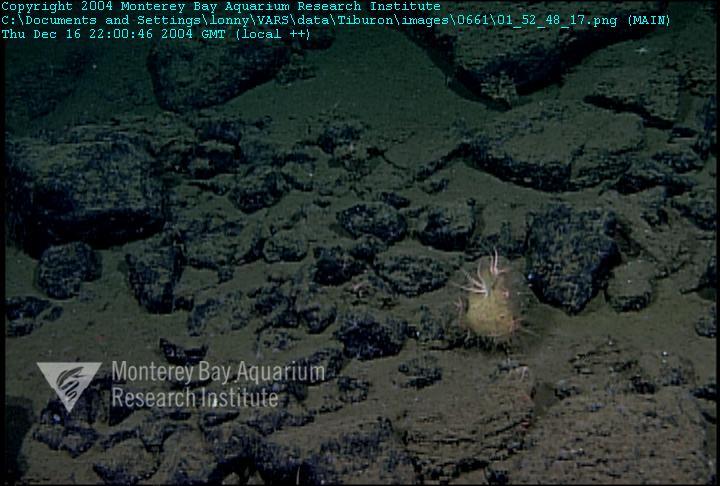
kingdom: Animalia
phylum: Porifera
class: Hexactinellida
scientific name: Hexactinellida
